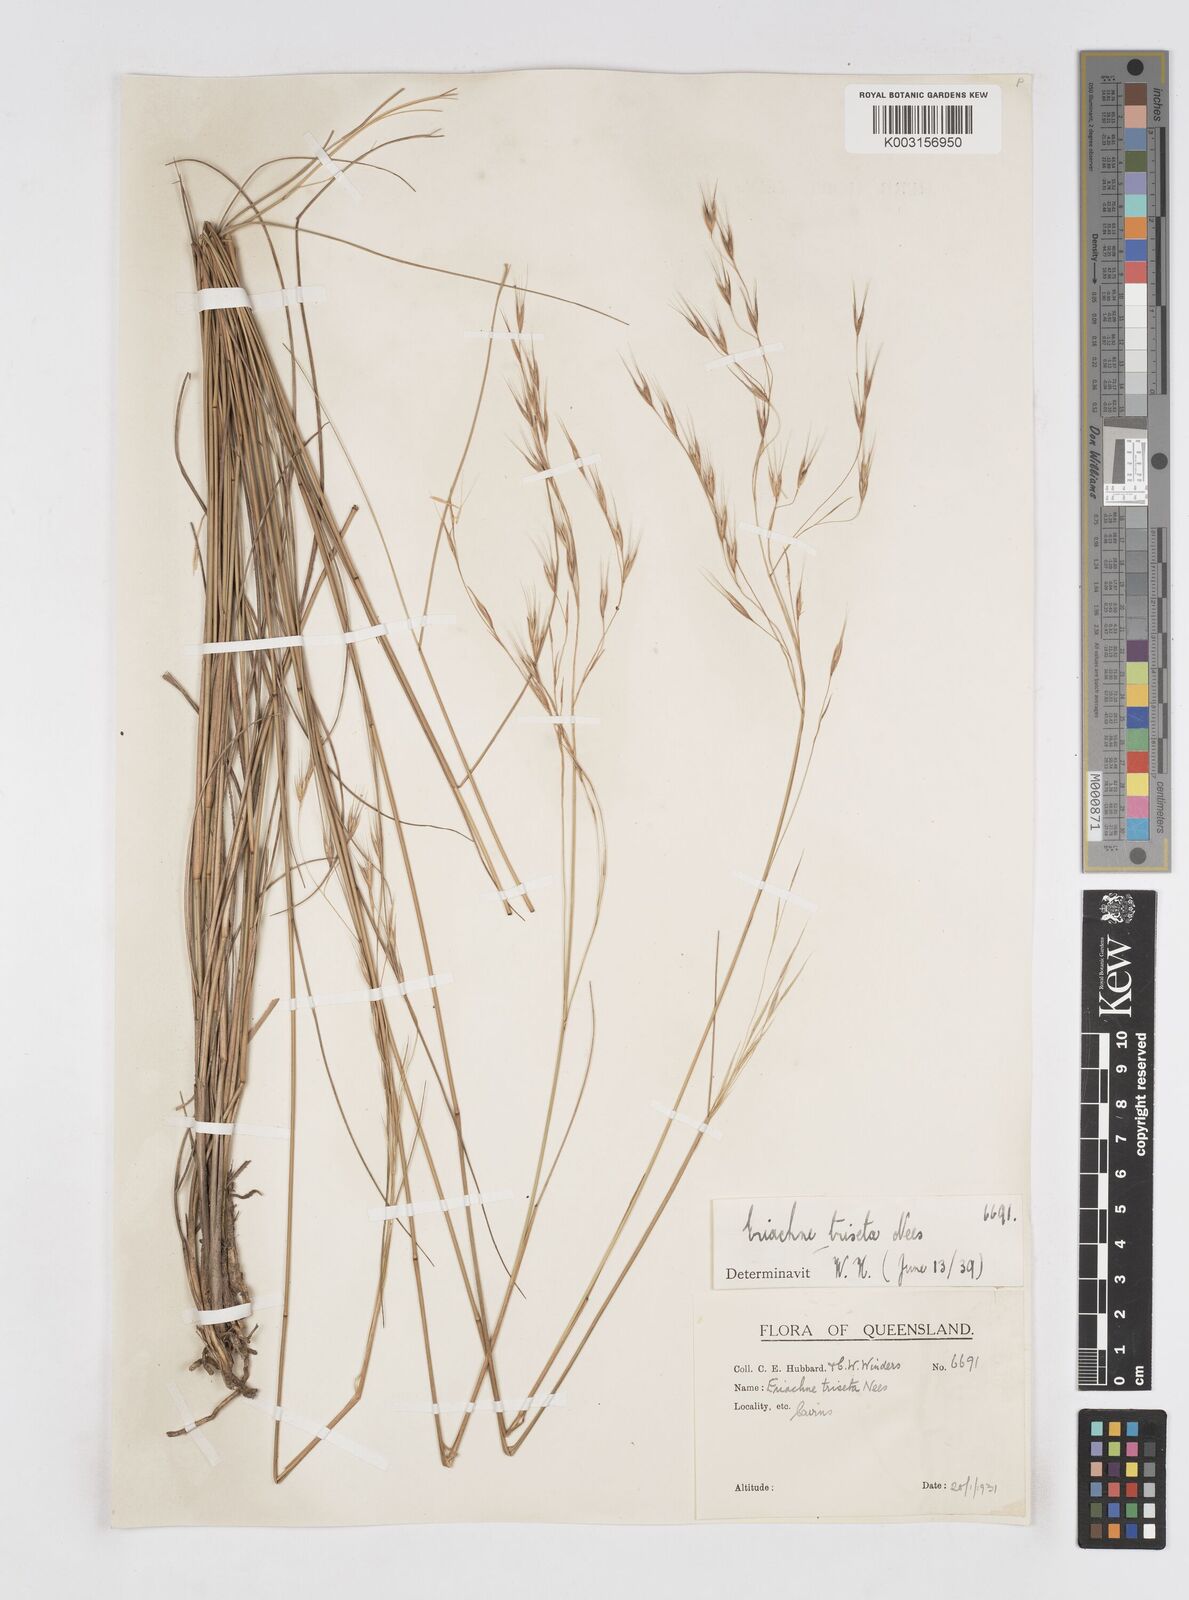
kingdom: Plantae
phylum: Tracheophyta
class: Liliopsida
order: Poales
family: Poaceae
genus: Eriachne
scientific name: Eriachne triseta
